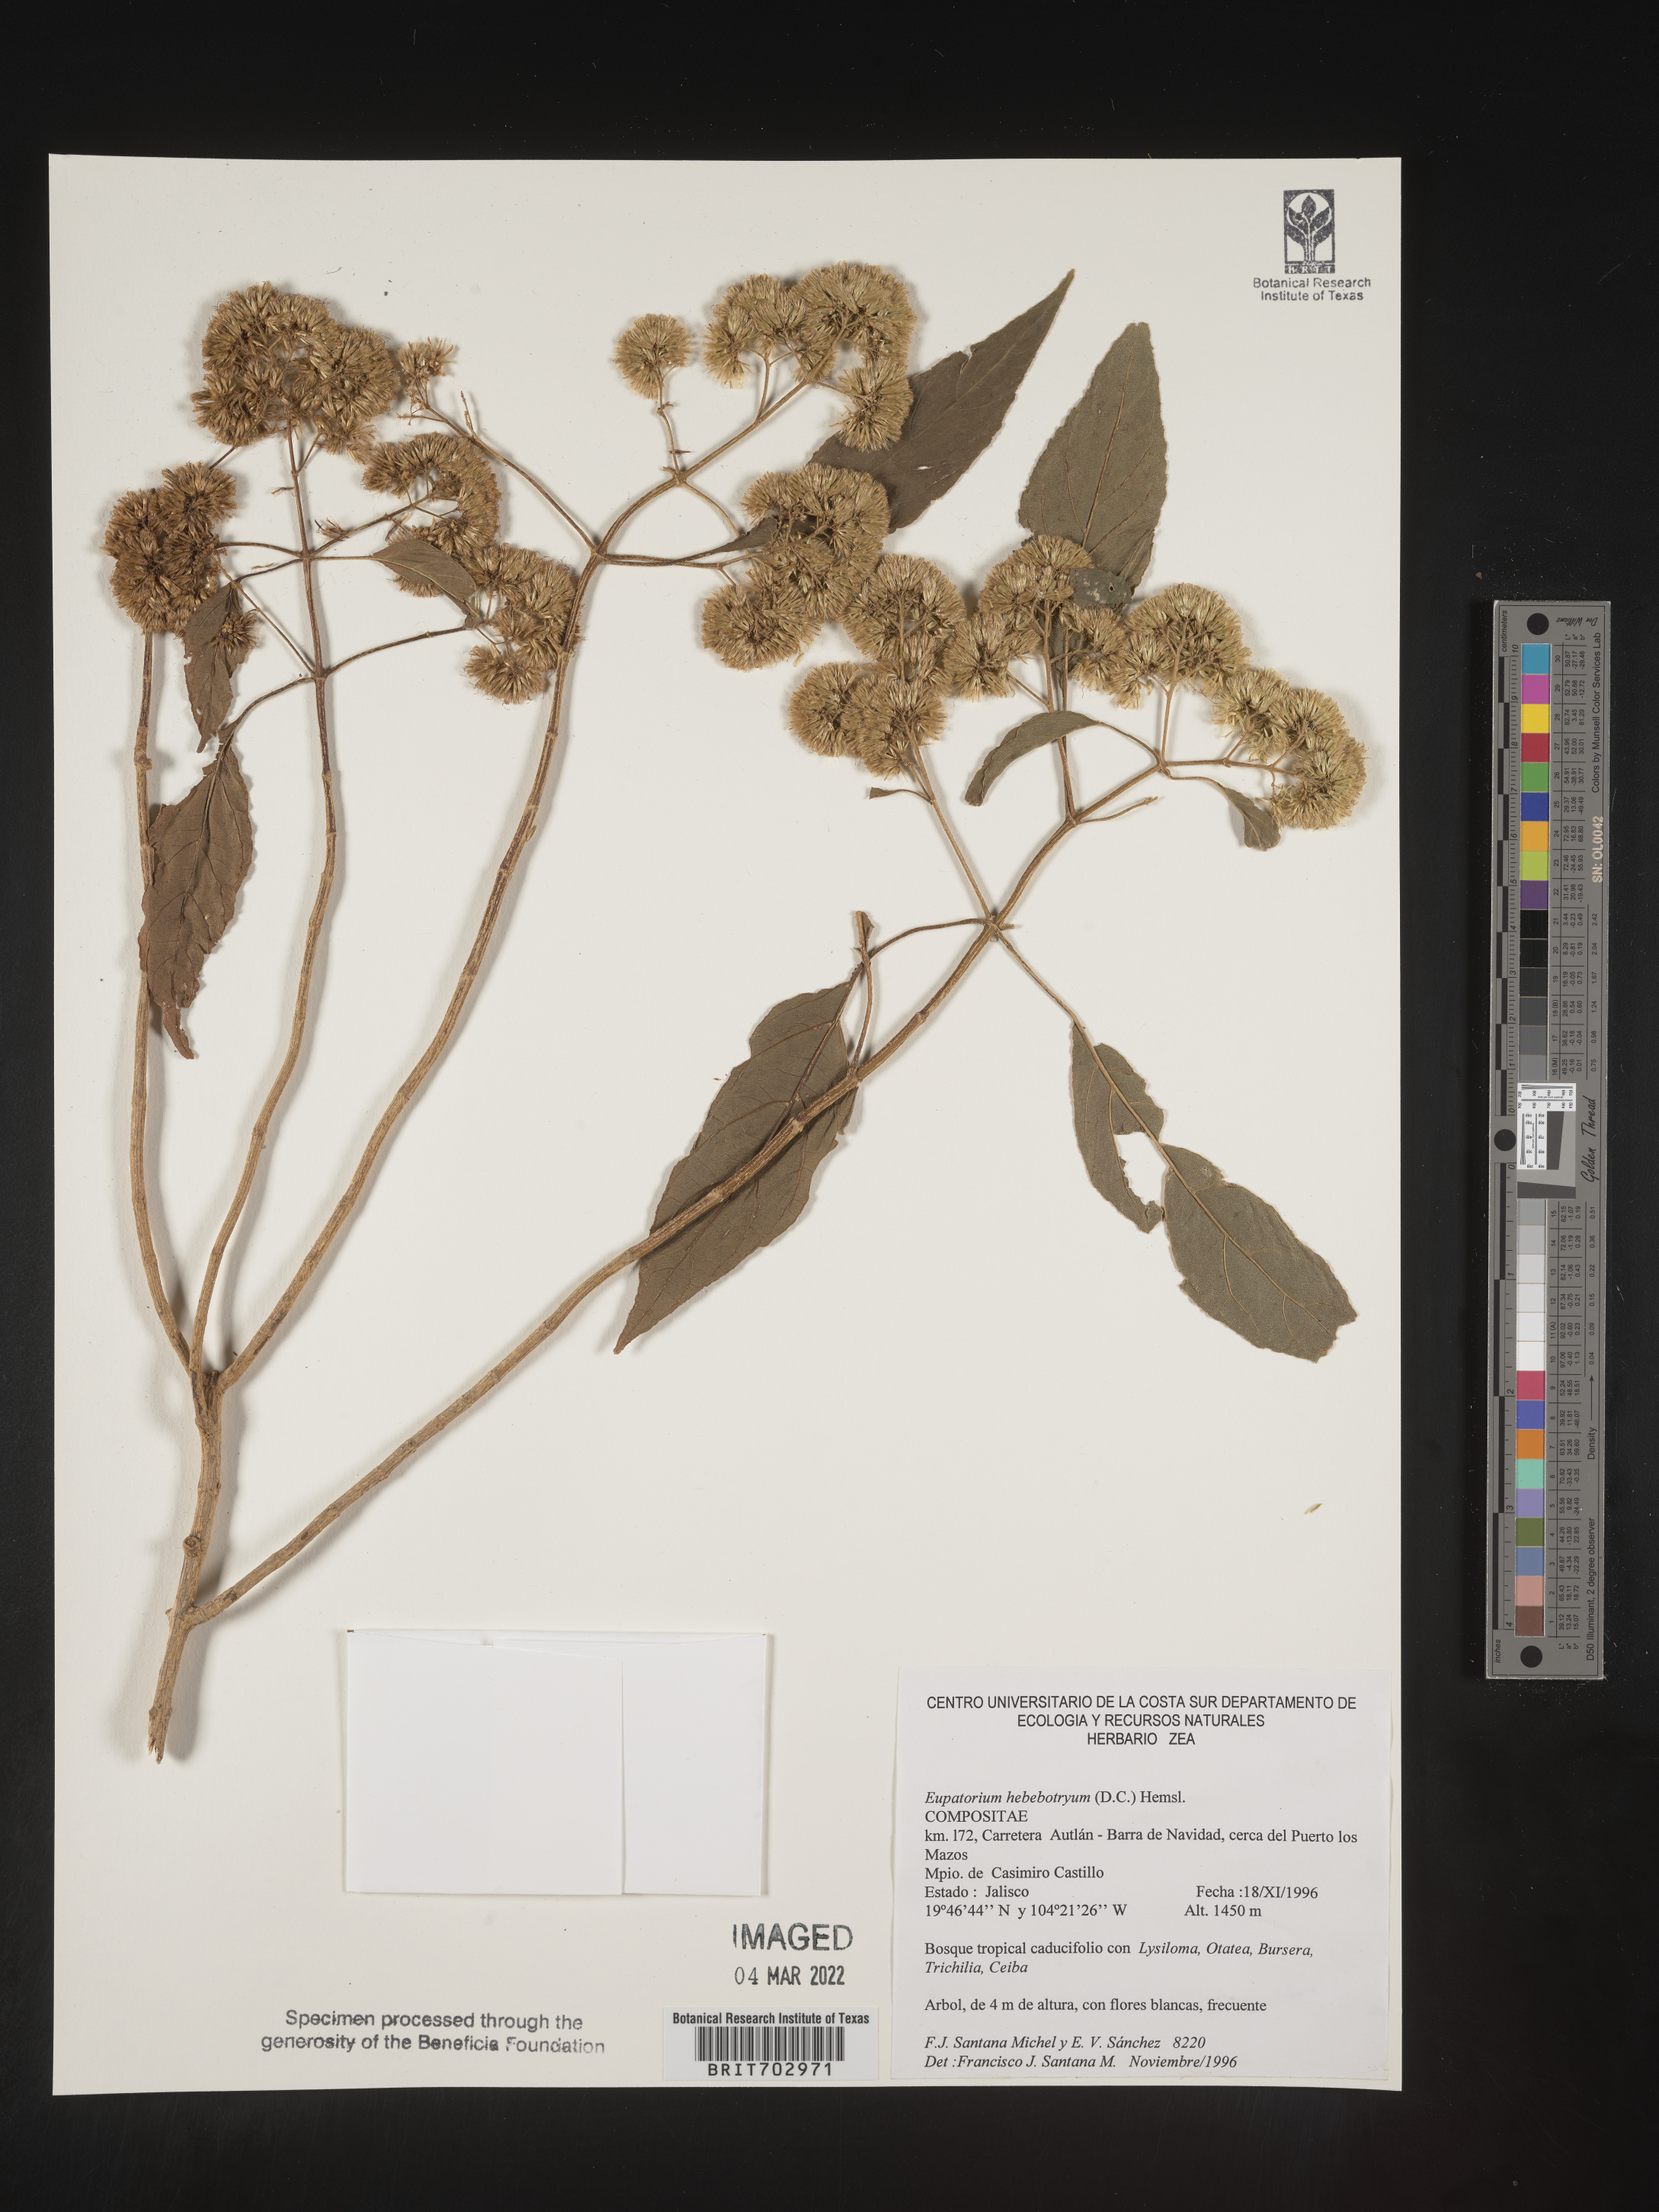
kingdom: Plantae
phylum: Tracheophyta
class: Magnoliopsida
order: Asterales
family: Asteraceae
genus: Eupatorium
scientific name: Eupatorium
